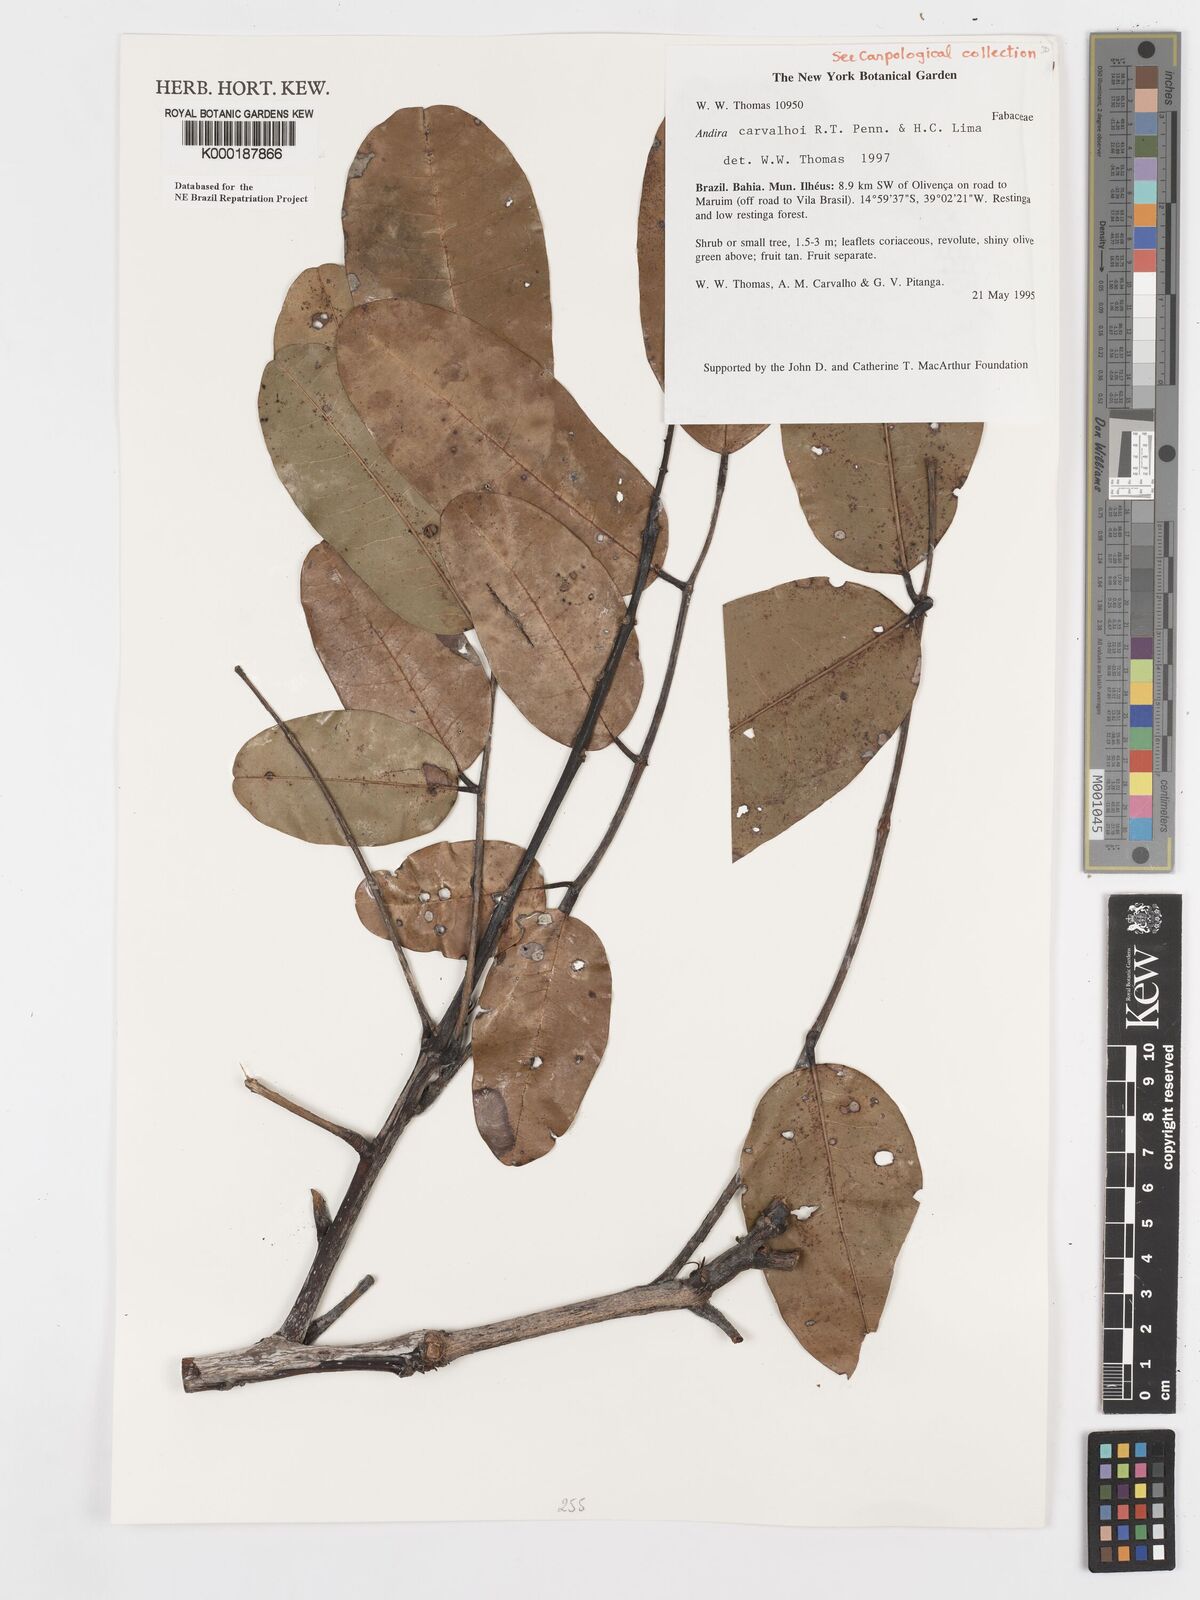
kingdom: Plantae
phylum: Tracheophyta
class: Magnoliopsida
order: Fabales
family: Fabaceae
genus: Andira
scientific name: Andira carvalhoi
